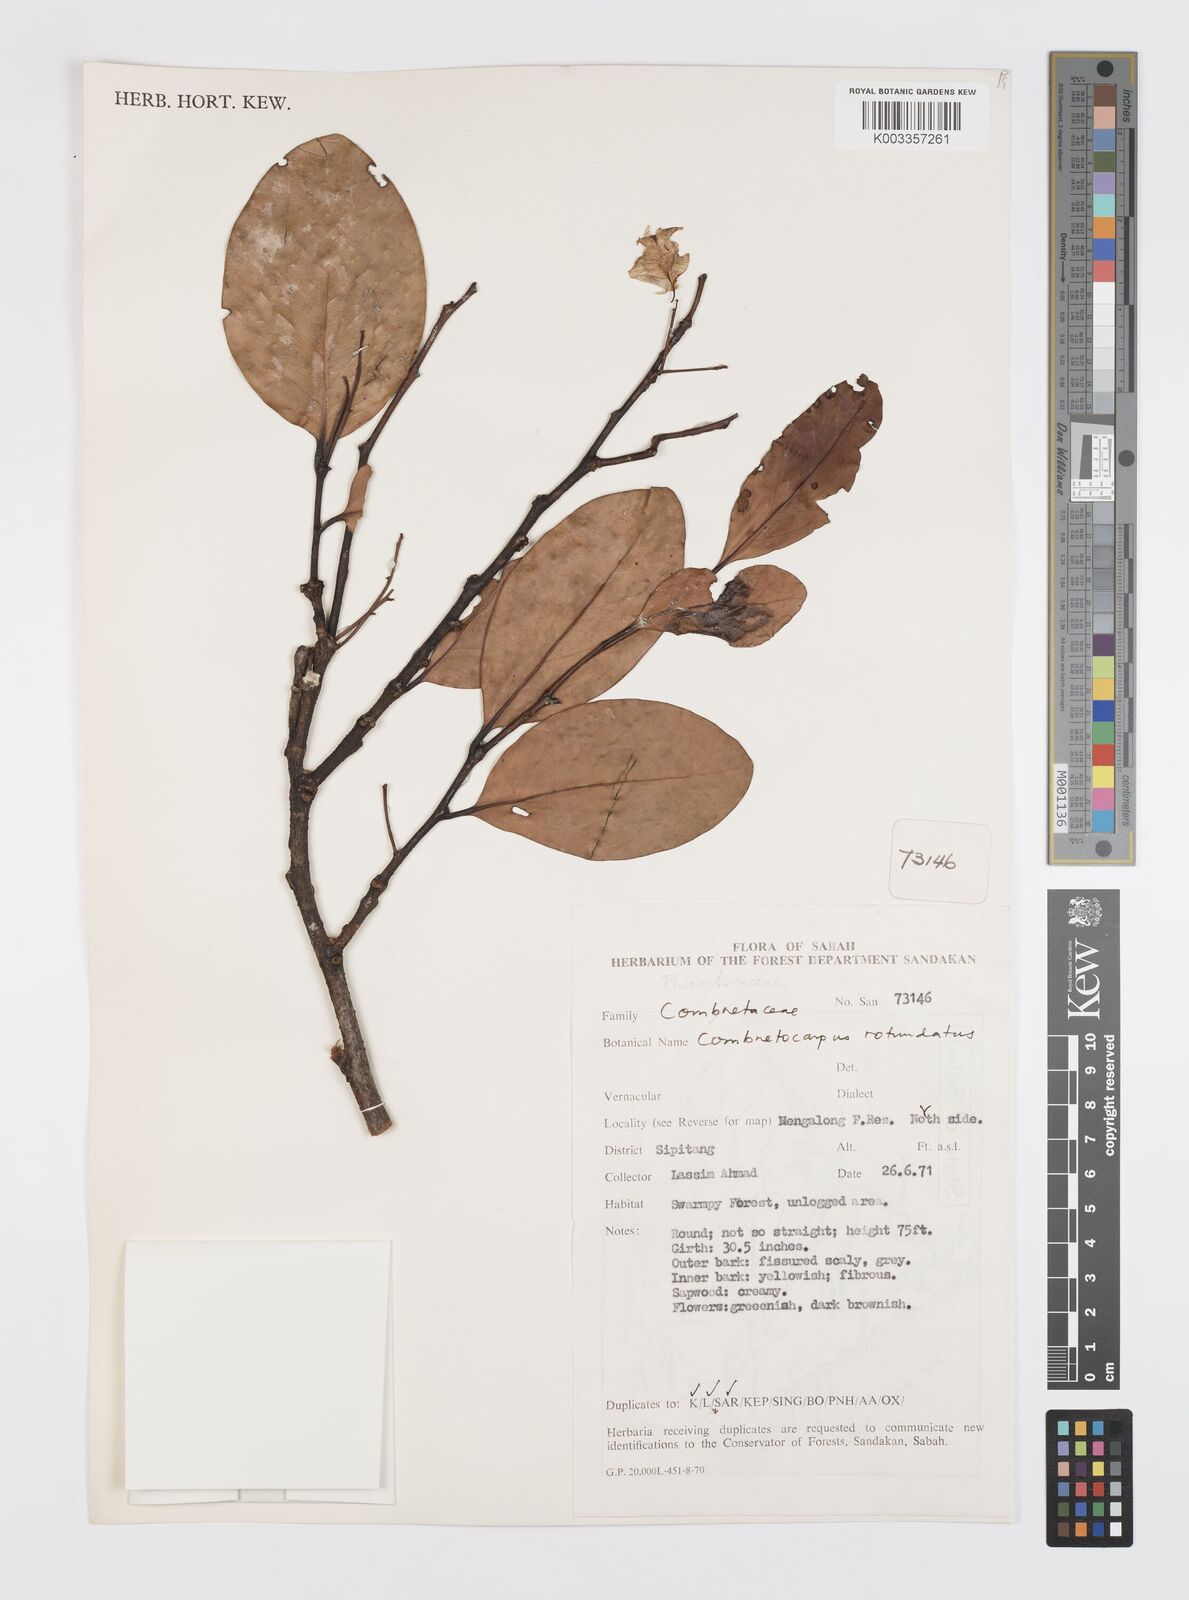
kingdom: Plantae
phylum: Tracheophyta
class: Magnoliopsida
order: Cucurbitales
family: Anisophylleaceae
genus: Combretocarpus
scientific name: Combretocarpus rotundatus
